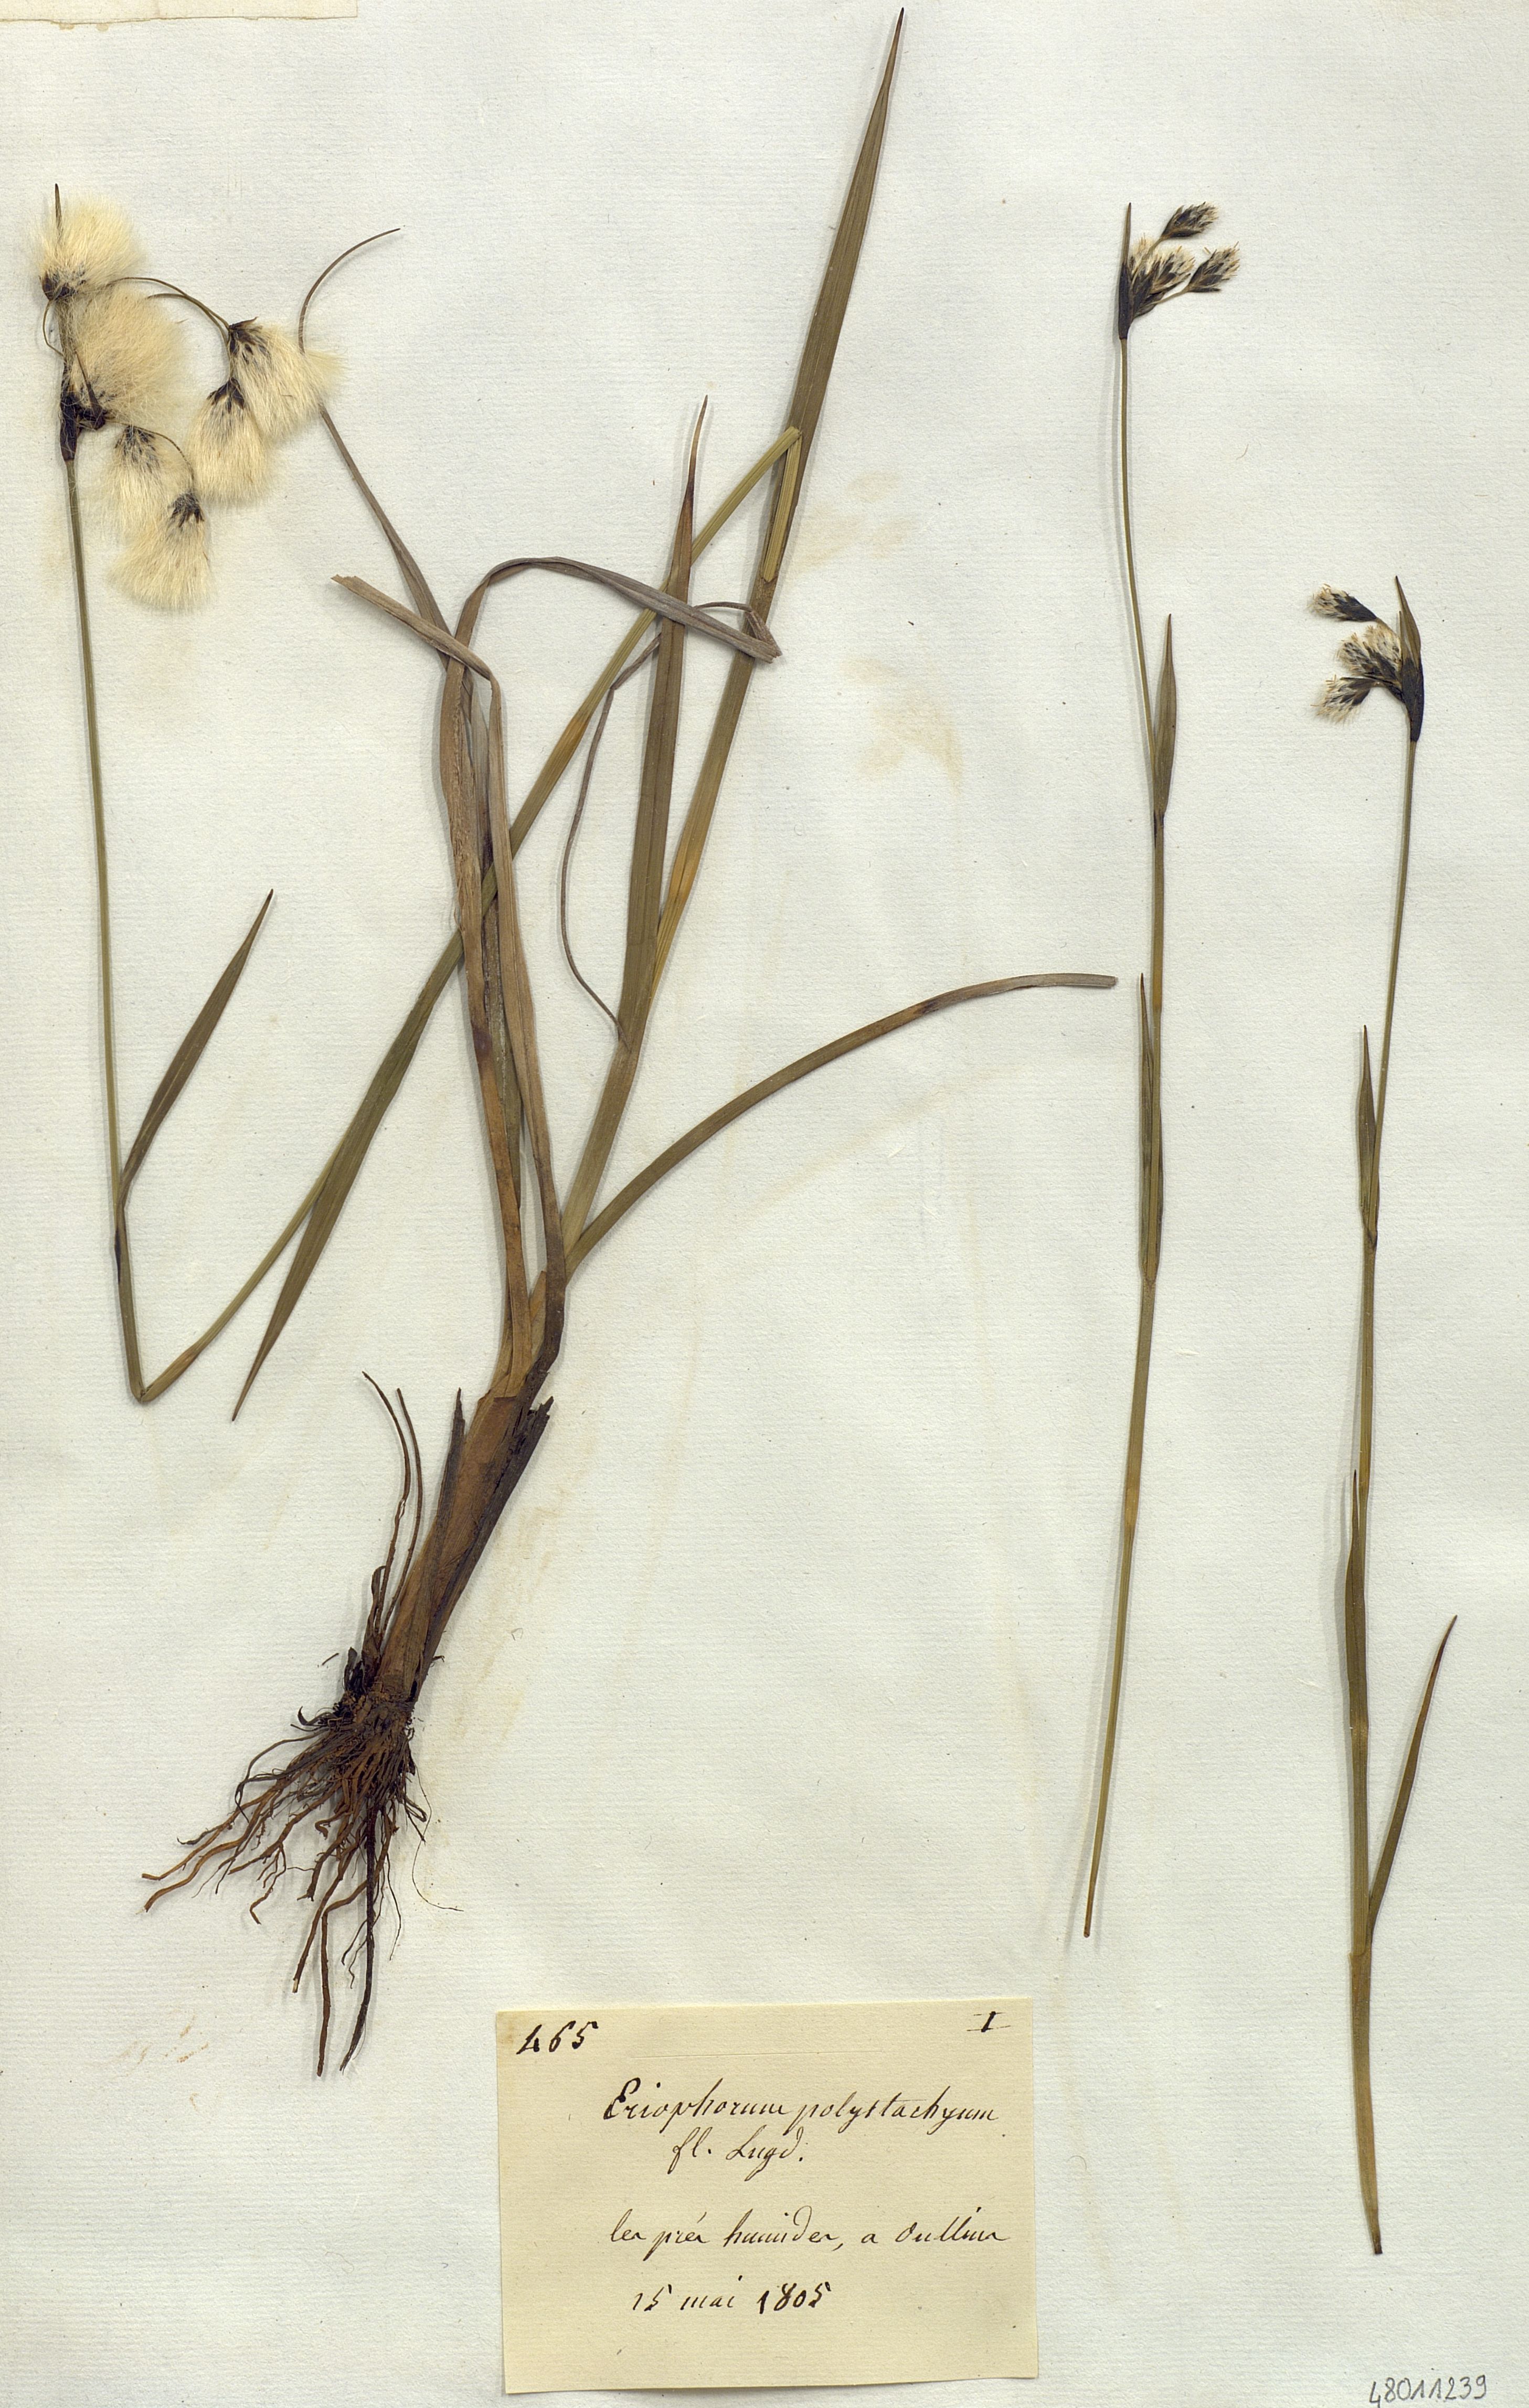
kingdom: Plantae
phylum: Tracheophyta
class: Liliopsida
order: Poales
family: Cyperaceae
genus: Eriophorum
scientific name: Eriophorum polystachion
